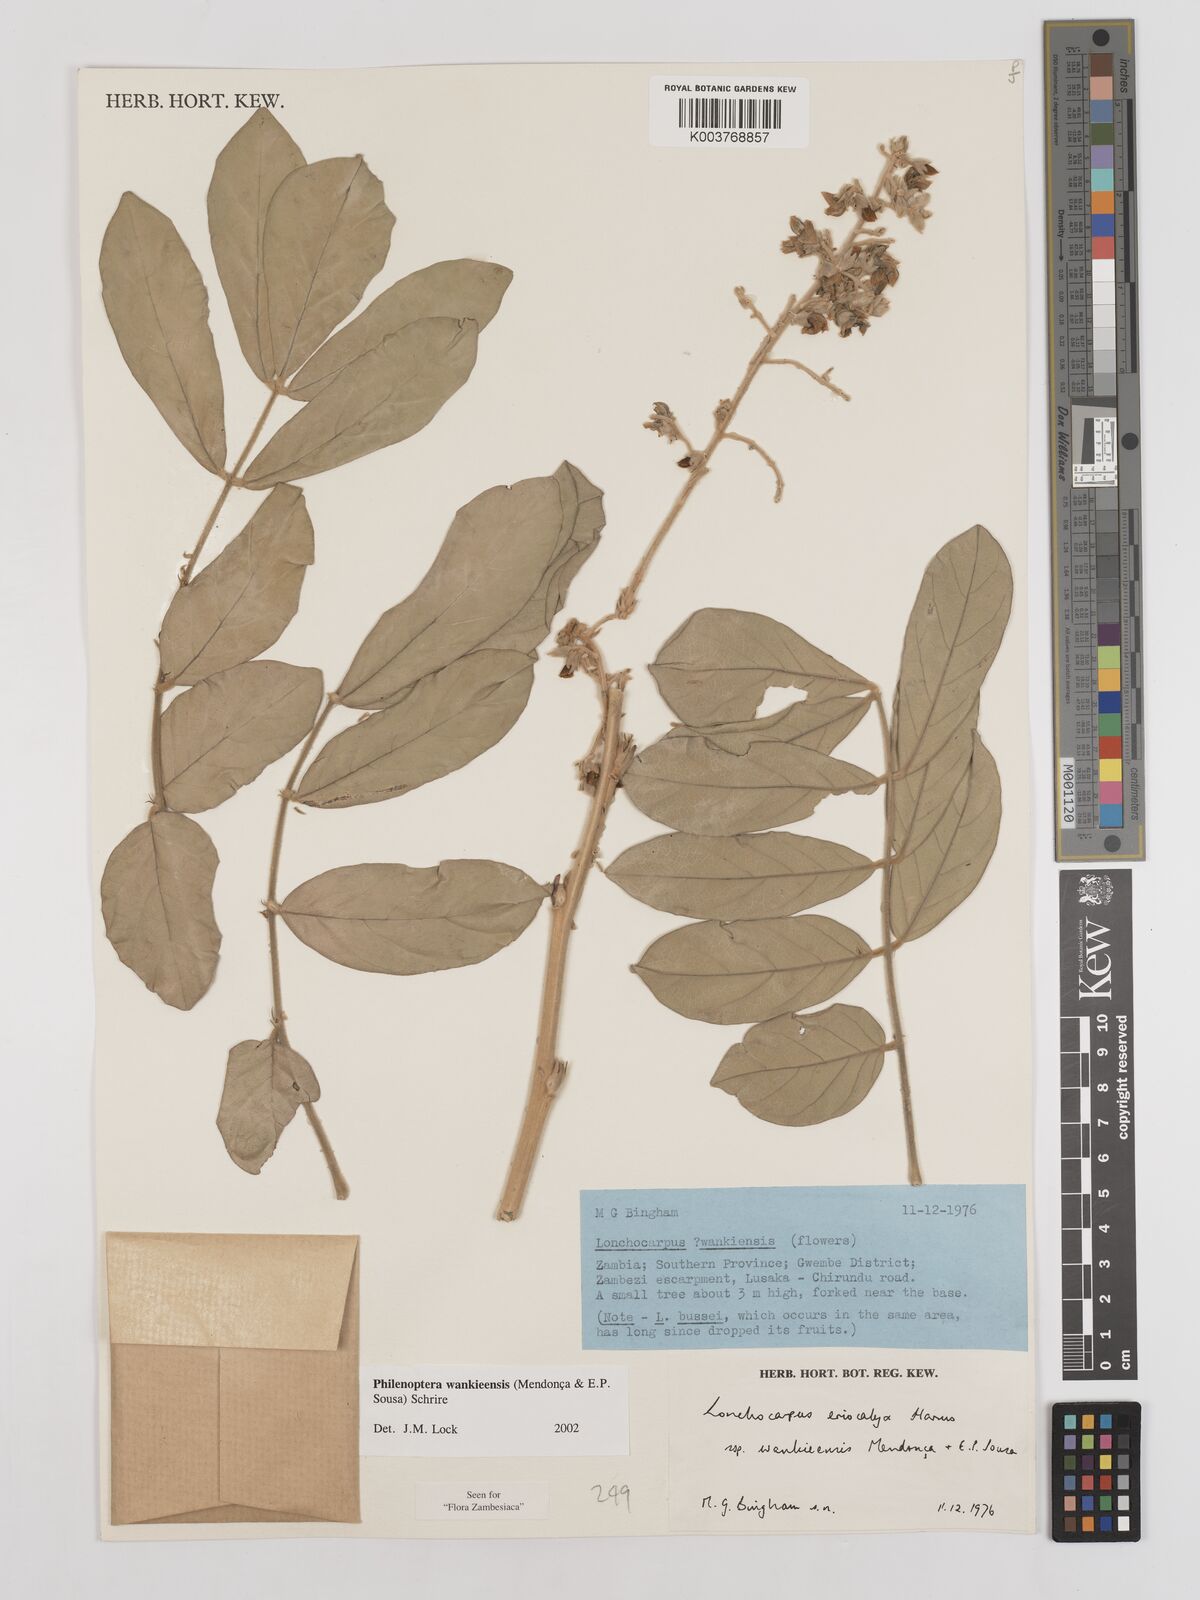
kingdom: Plantae
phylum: Tracheophyta
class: Magnoliopsida
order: Fabales
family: Fabaceae
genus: Philenoptera
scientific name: Philenoptera wankieensis
